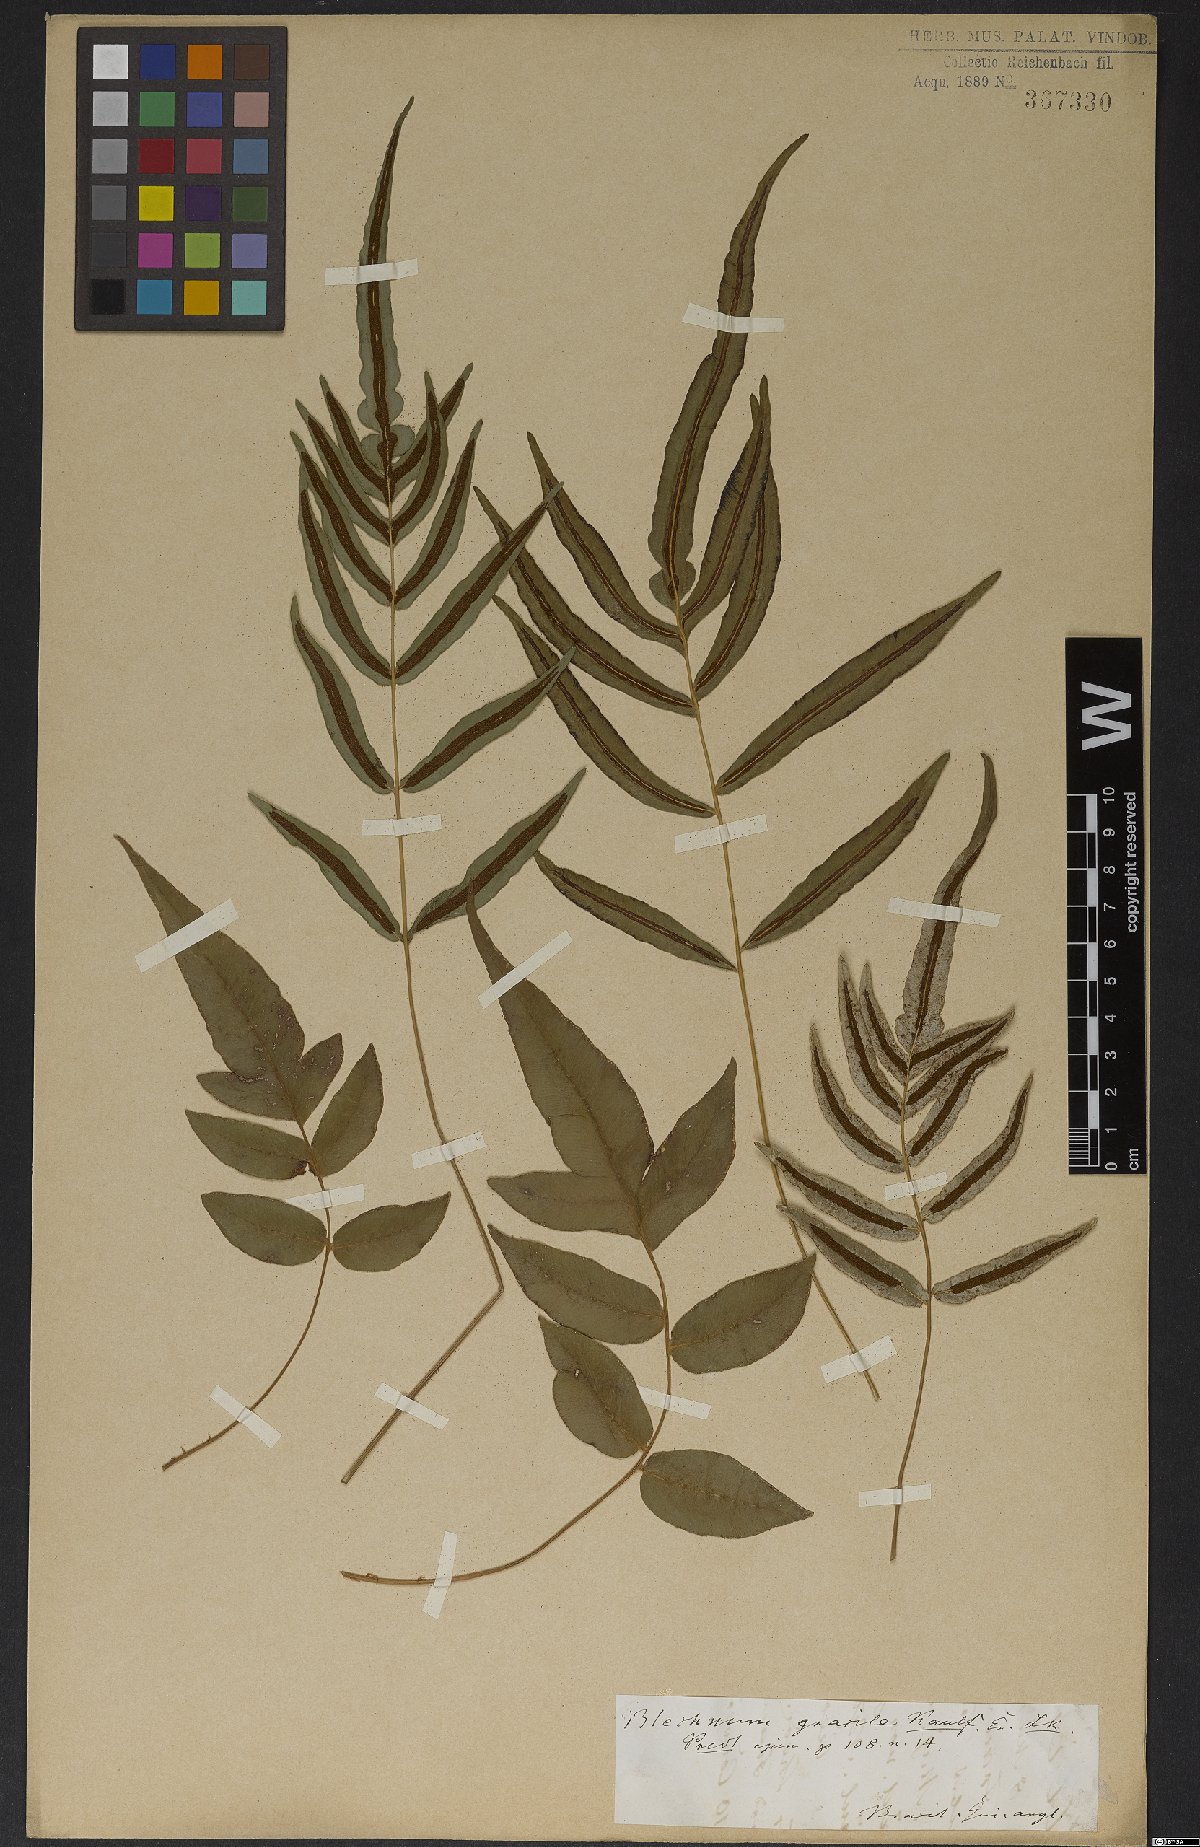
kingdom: Plantae
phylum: Tracheophyta
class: Polypodiopsida
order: Polypodiales
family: Blechnaceae
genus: Blechnum
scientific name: Blechnum gracile
